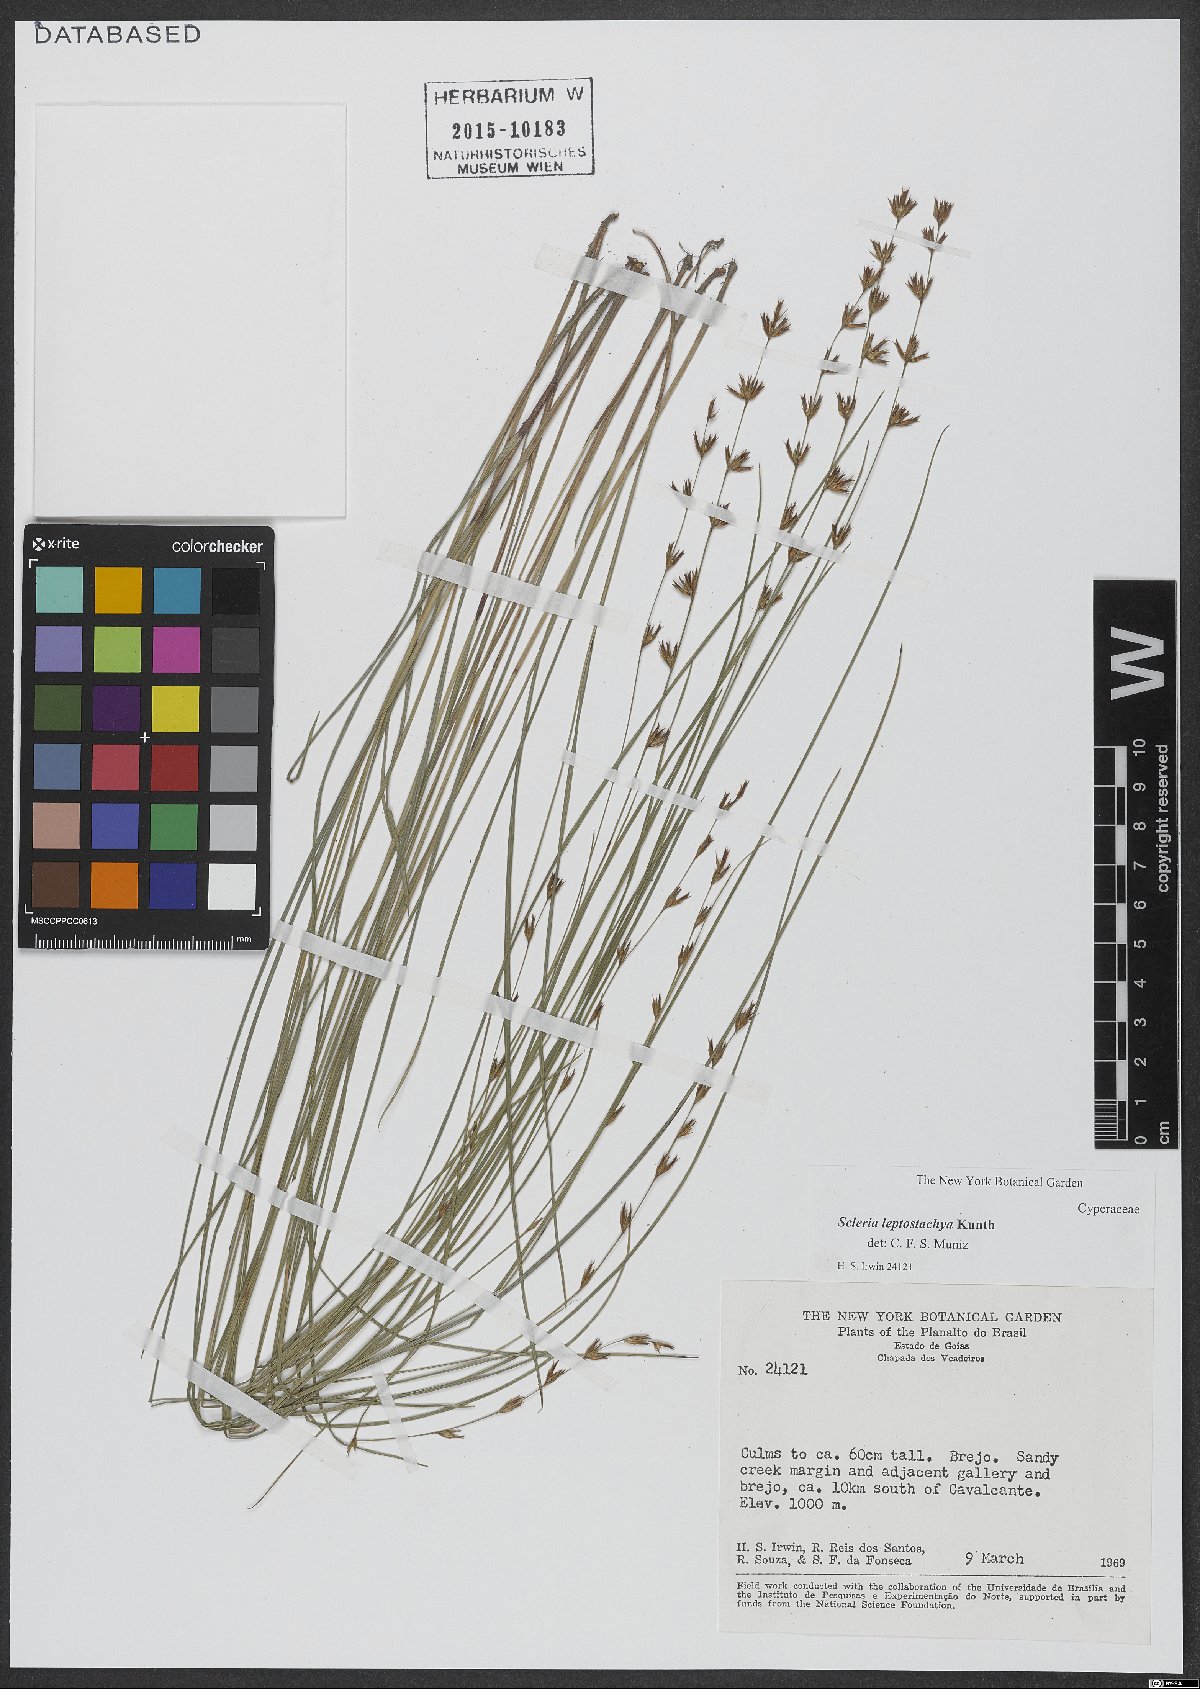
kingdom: Plantae
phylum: Tracheophyta
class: Liliopsida
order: Poales
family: Cyperaceae
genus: Scleria
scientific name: Scleria leptostachya
